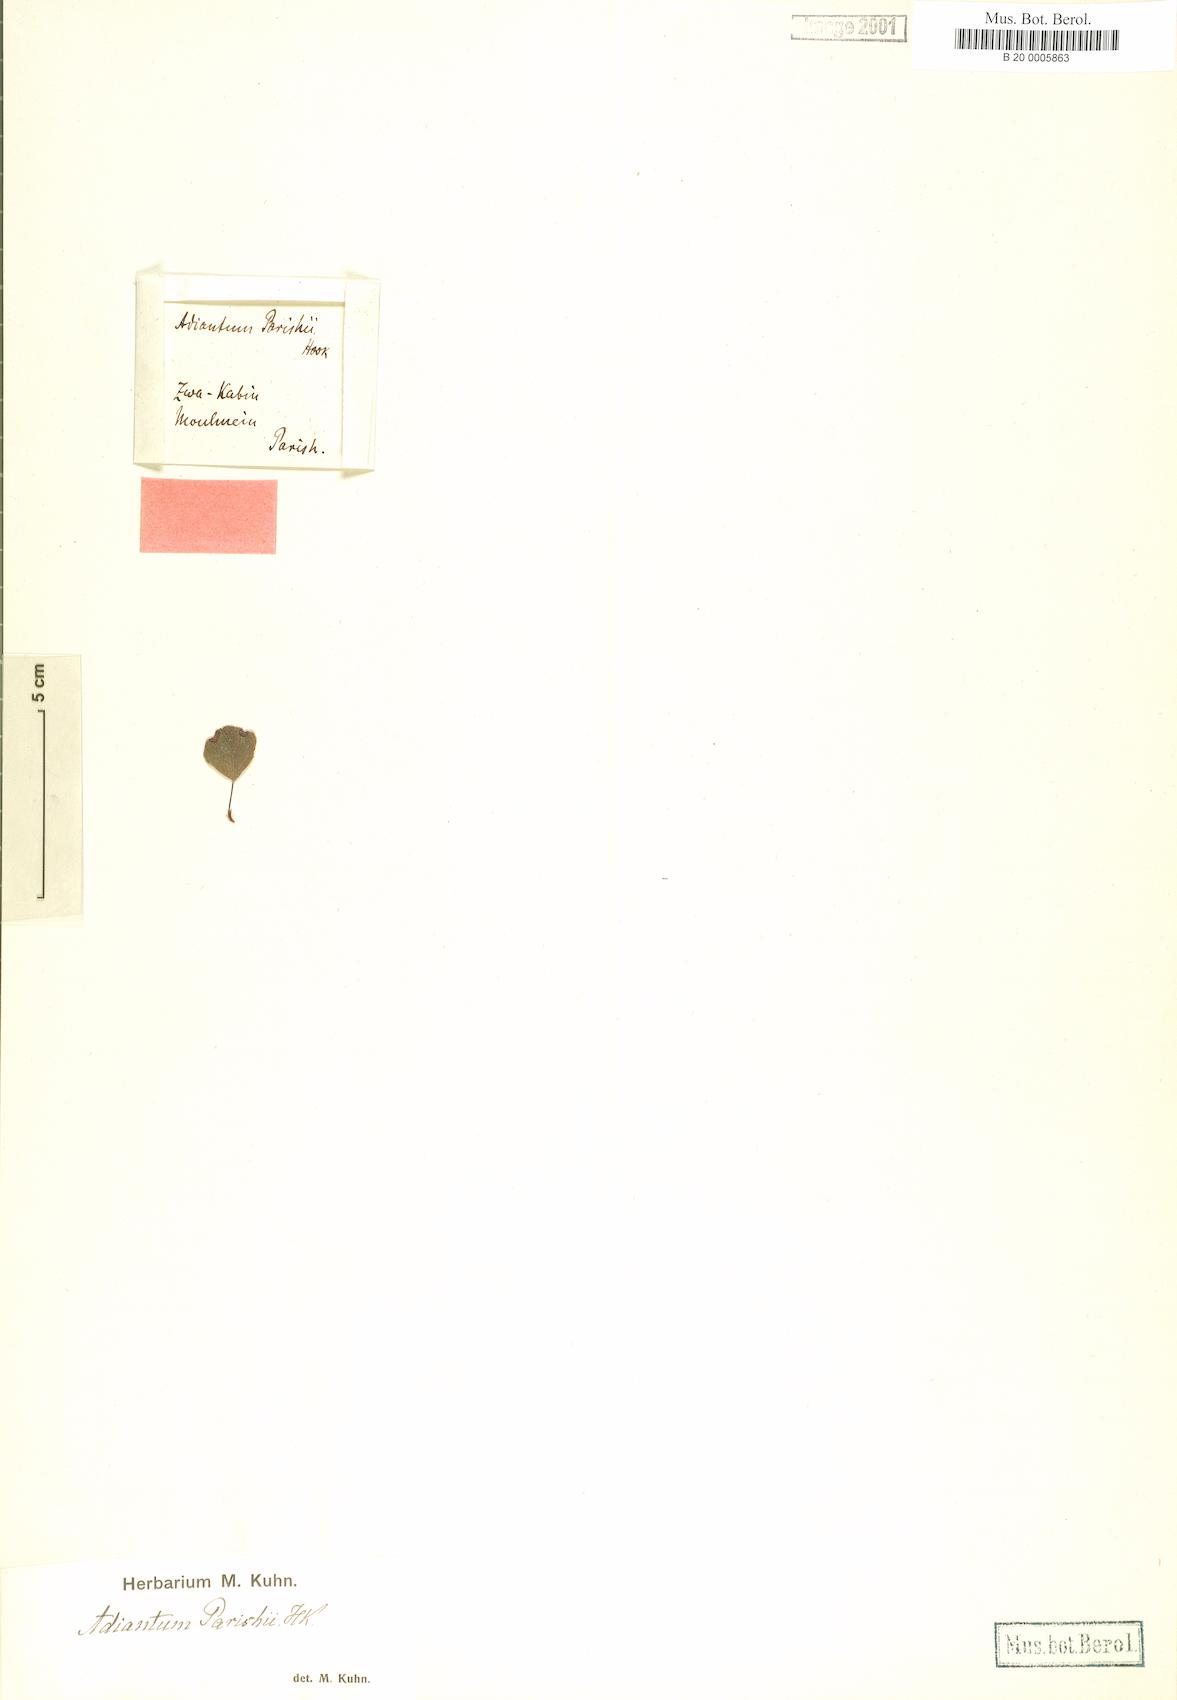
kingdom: Plantae
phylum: Tracheophyta
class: Polypodiopsida
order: Polypodiales
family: Pteridaceae
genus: Adiantum
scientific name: Adiantum parishii
